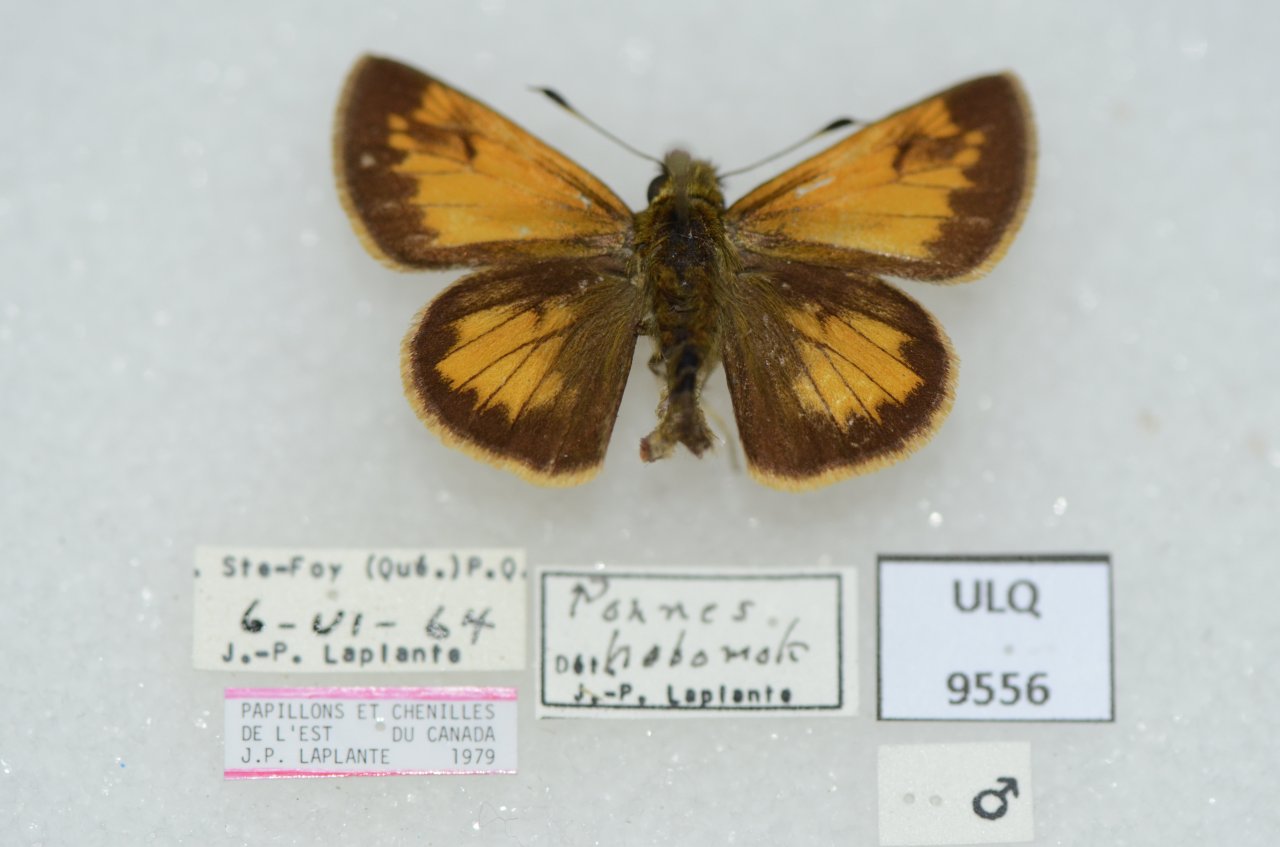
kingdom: Animalia
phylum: Arthropoda
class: Insecta
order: Lepidoptera
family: Hesperiidae
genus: Lon
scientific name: Lon hobomok
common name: Hobomok Skipper
